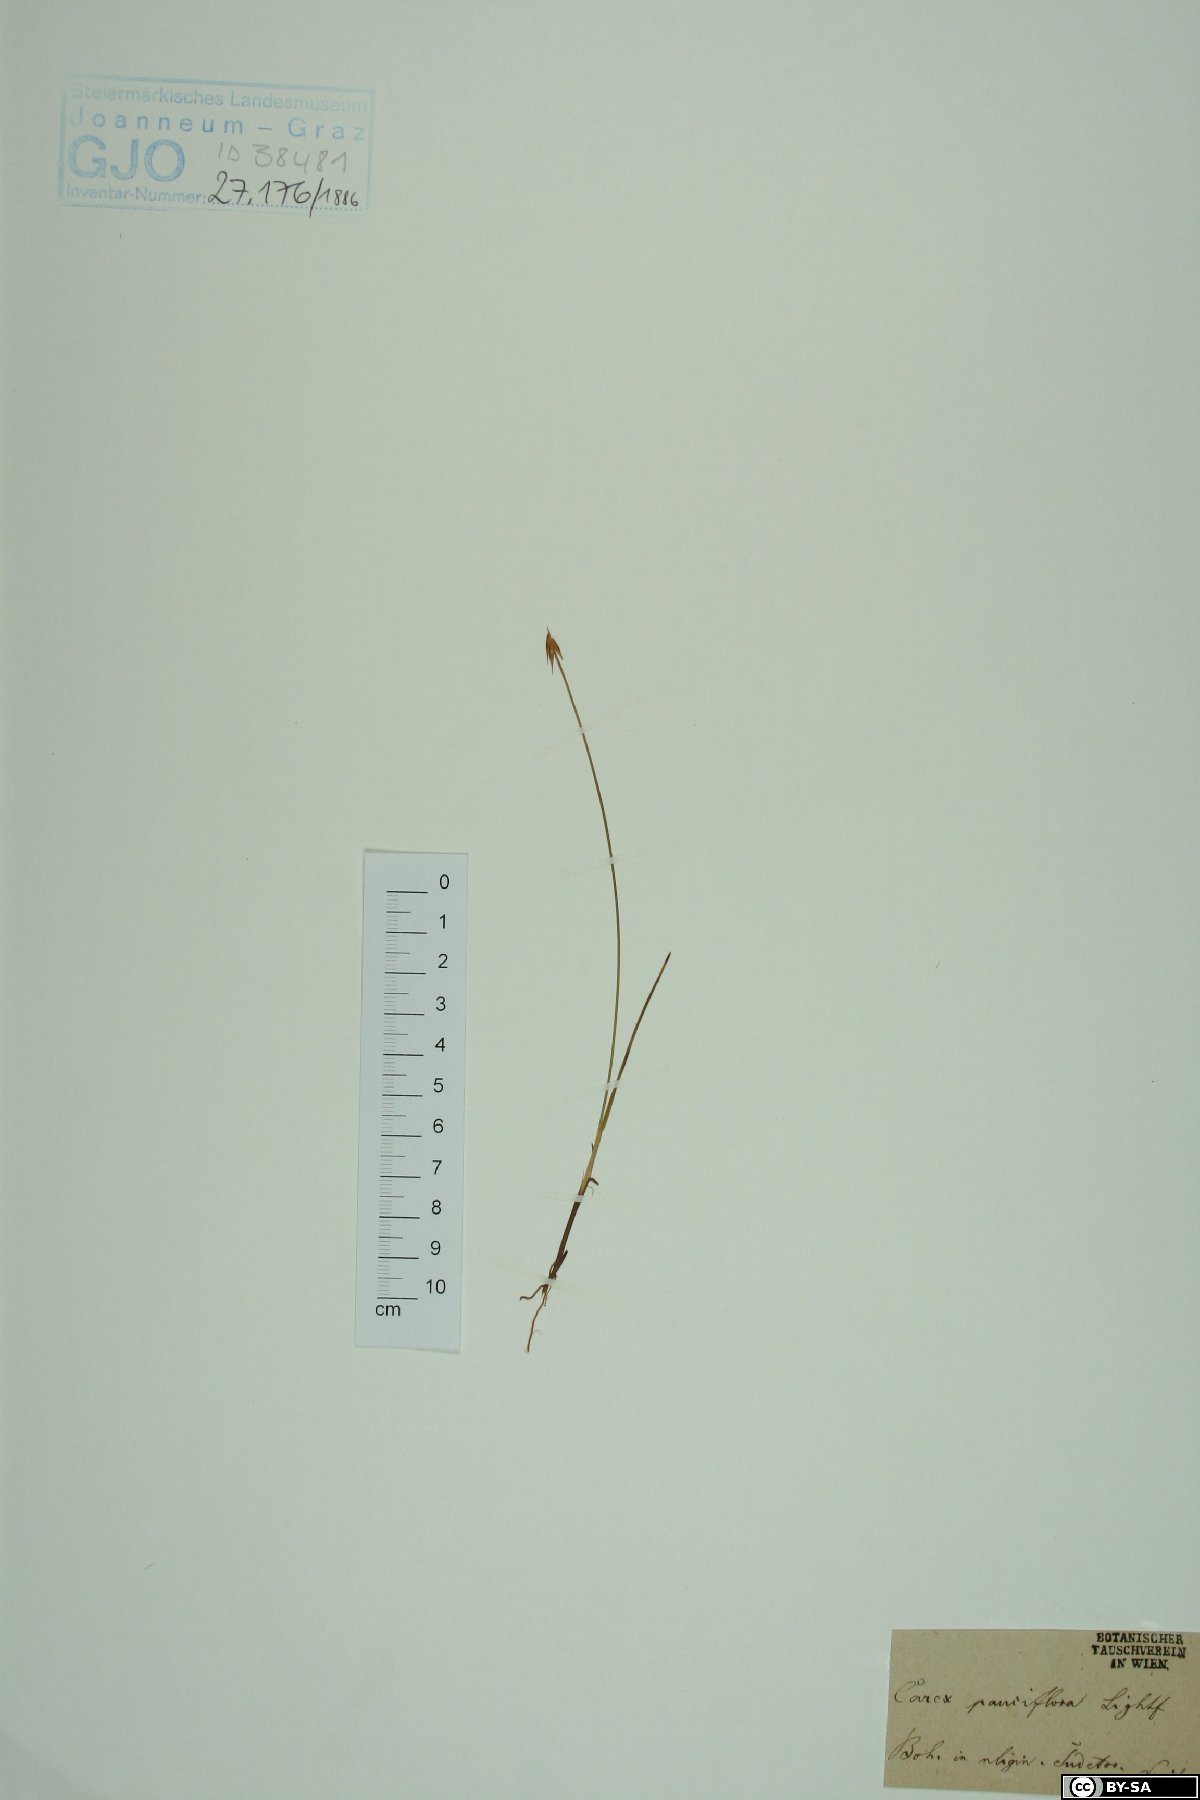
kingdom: Plantae
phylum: Tracheophyta
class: Liliopsida
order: Poales
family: Cyperaceae
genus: Carex
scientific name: Carex pauciflora
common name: Few-flowered sedge
